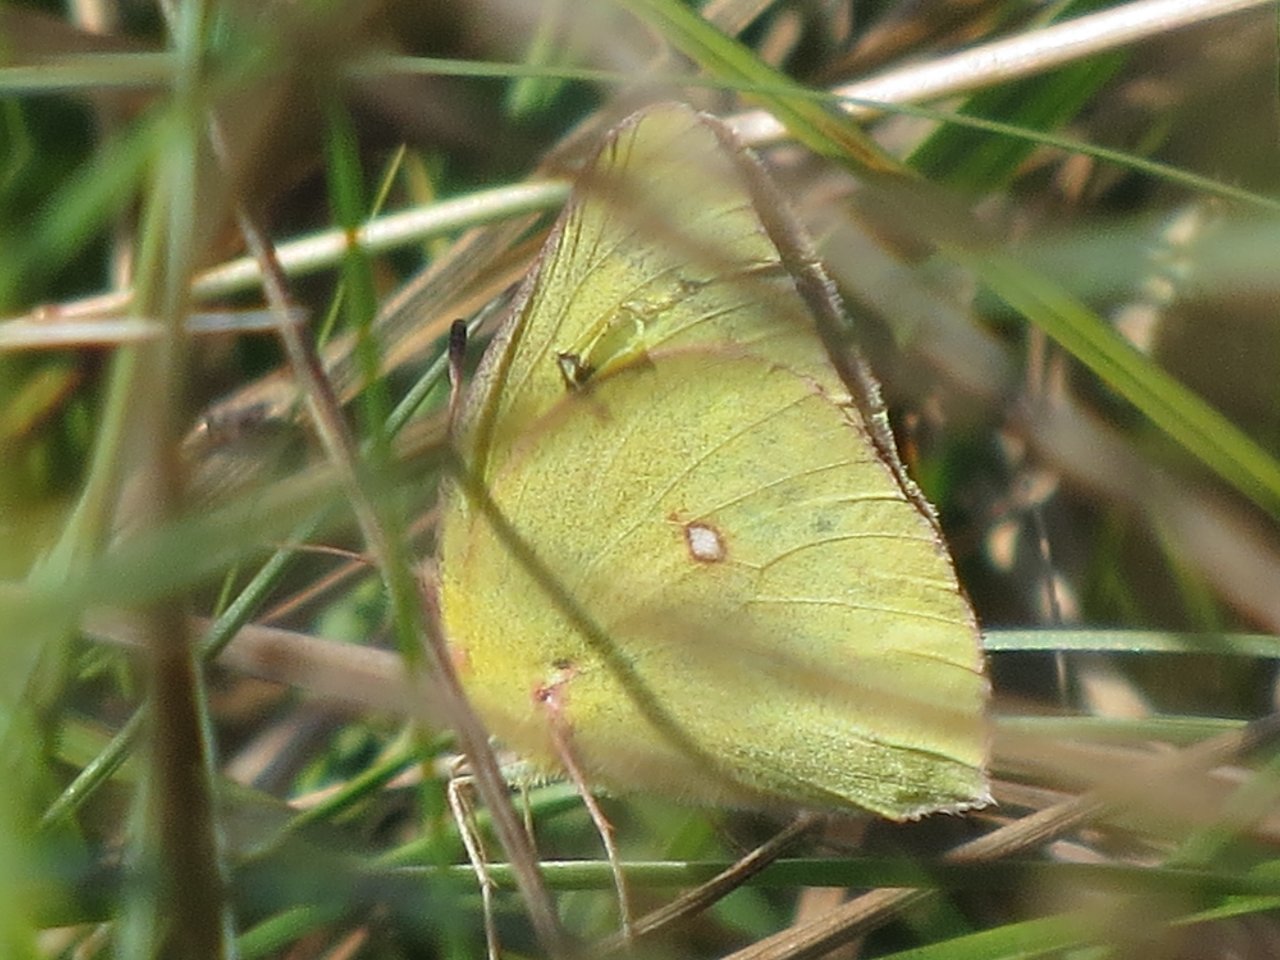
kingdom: Animalia
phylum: Arthropoda
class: Insecta
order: Lepidoptera
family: Pieridae
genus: Colias
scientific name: Colias philodice
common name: Clouded Sulphur
